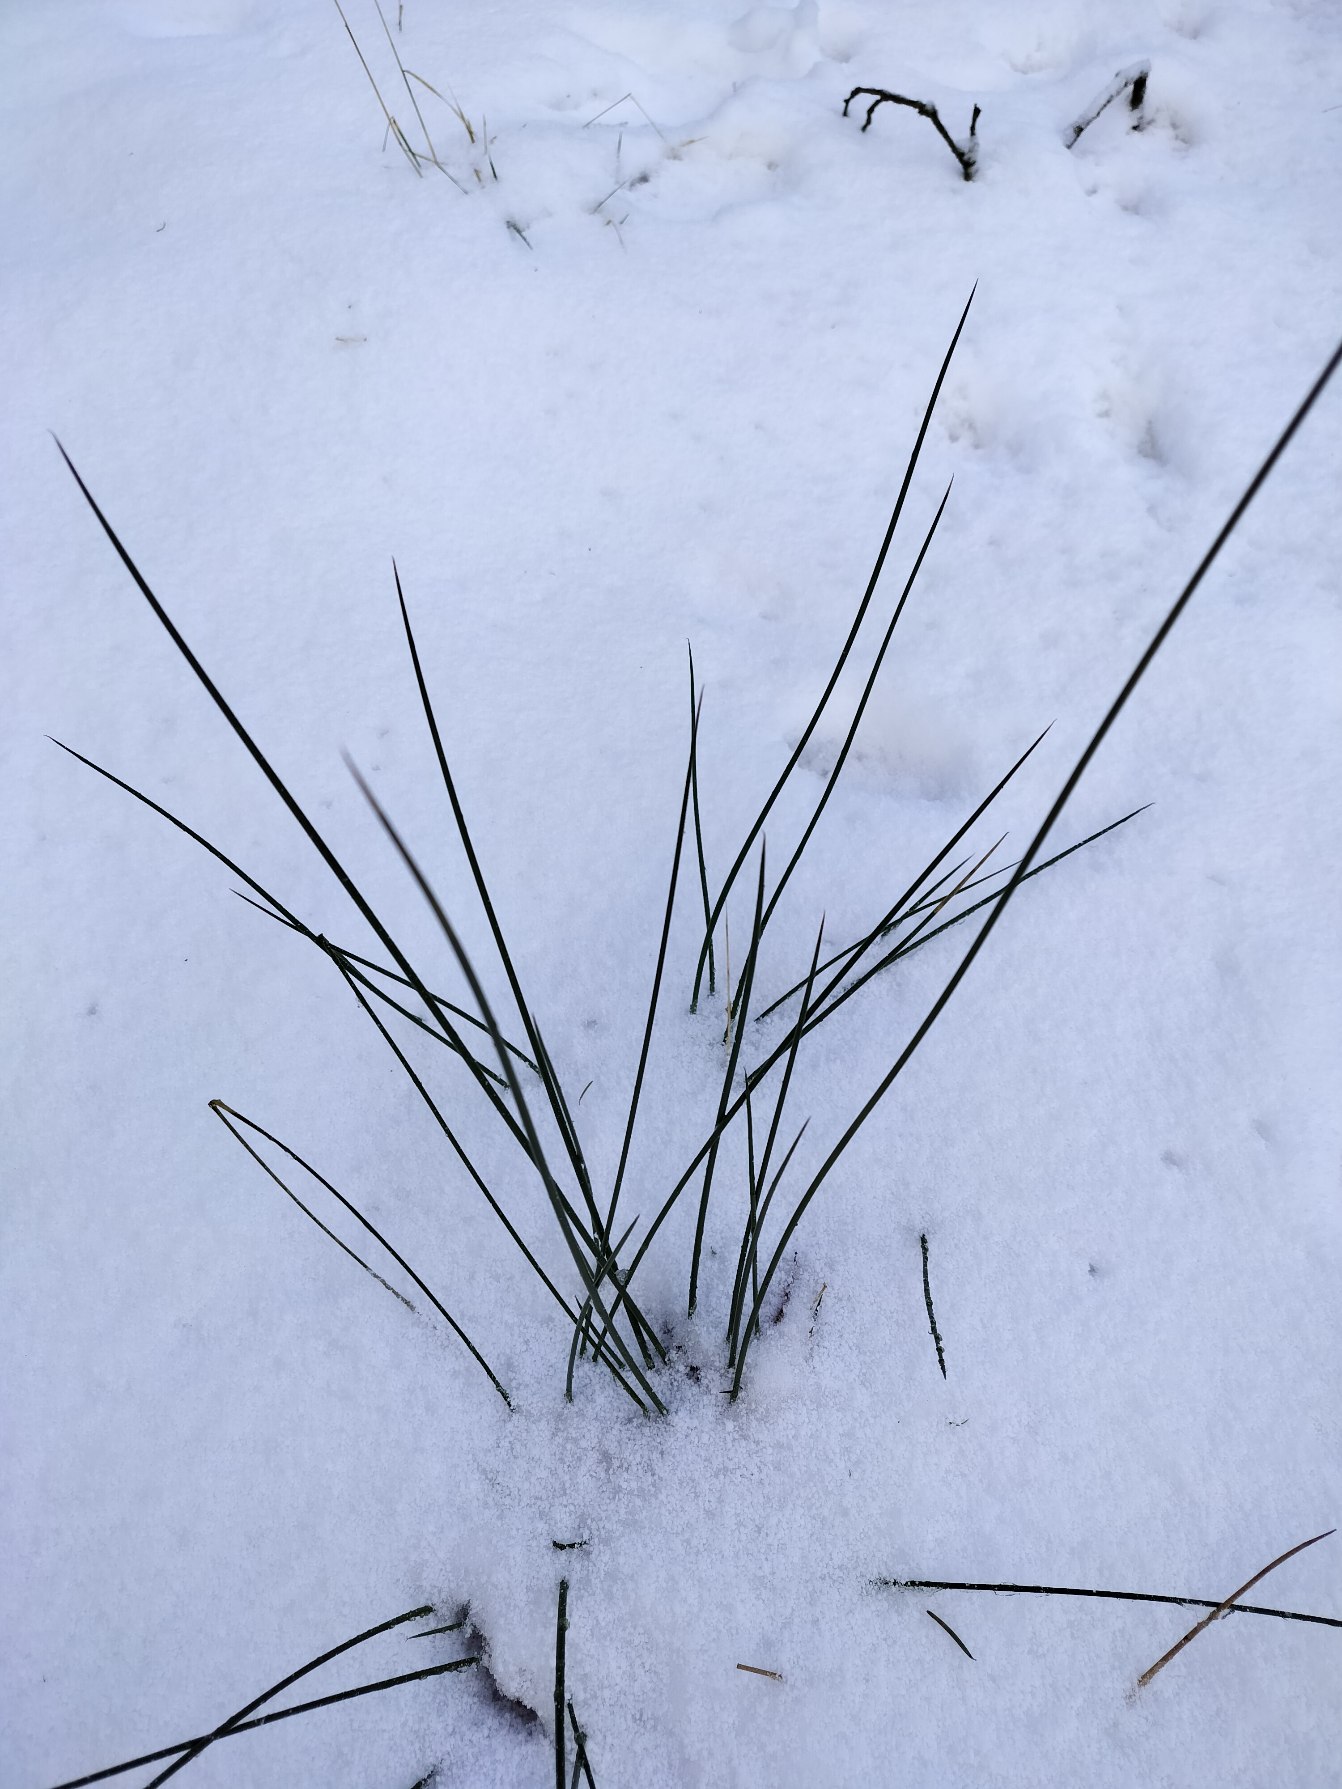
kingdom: Plantae
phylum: Tracheophyta
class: Liliopsida
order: Poales
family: Juncaceae
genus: Juncus
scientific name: Juncus effusus
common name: Lyse-siv
